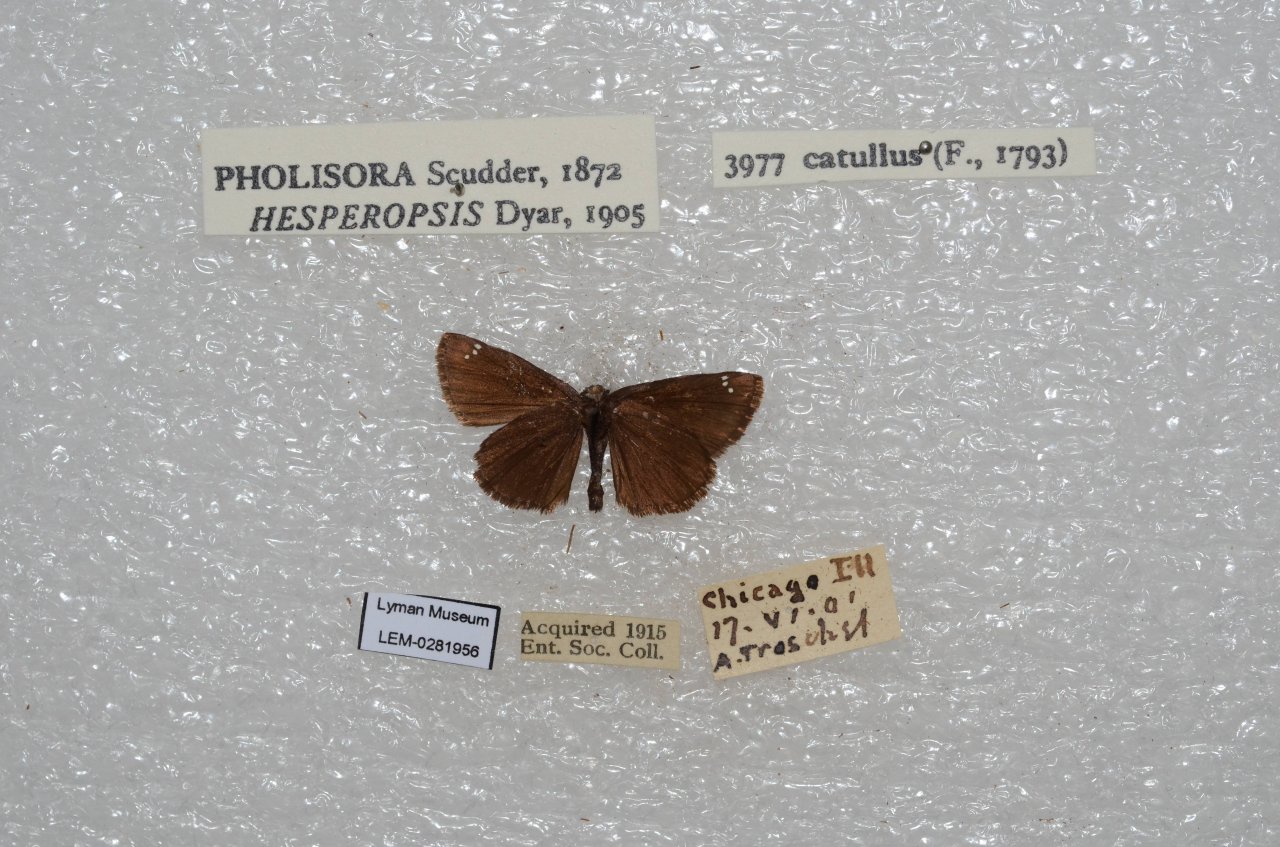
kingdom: Animalia
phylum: Arthropoda
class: Insecta
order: Lepidoptera
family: Hesperiidae
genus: Pholisora
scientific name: Pholisora catullus
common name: Common Sootywing
